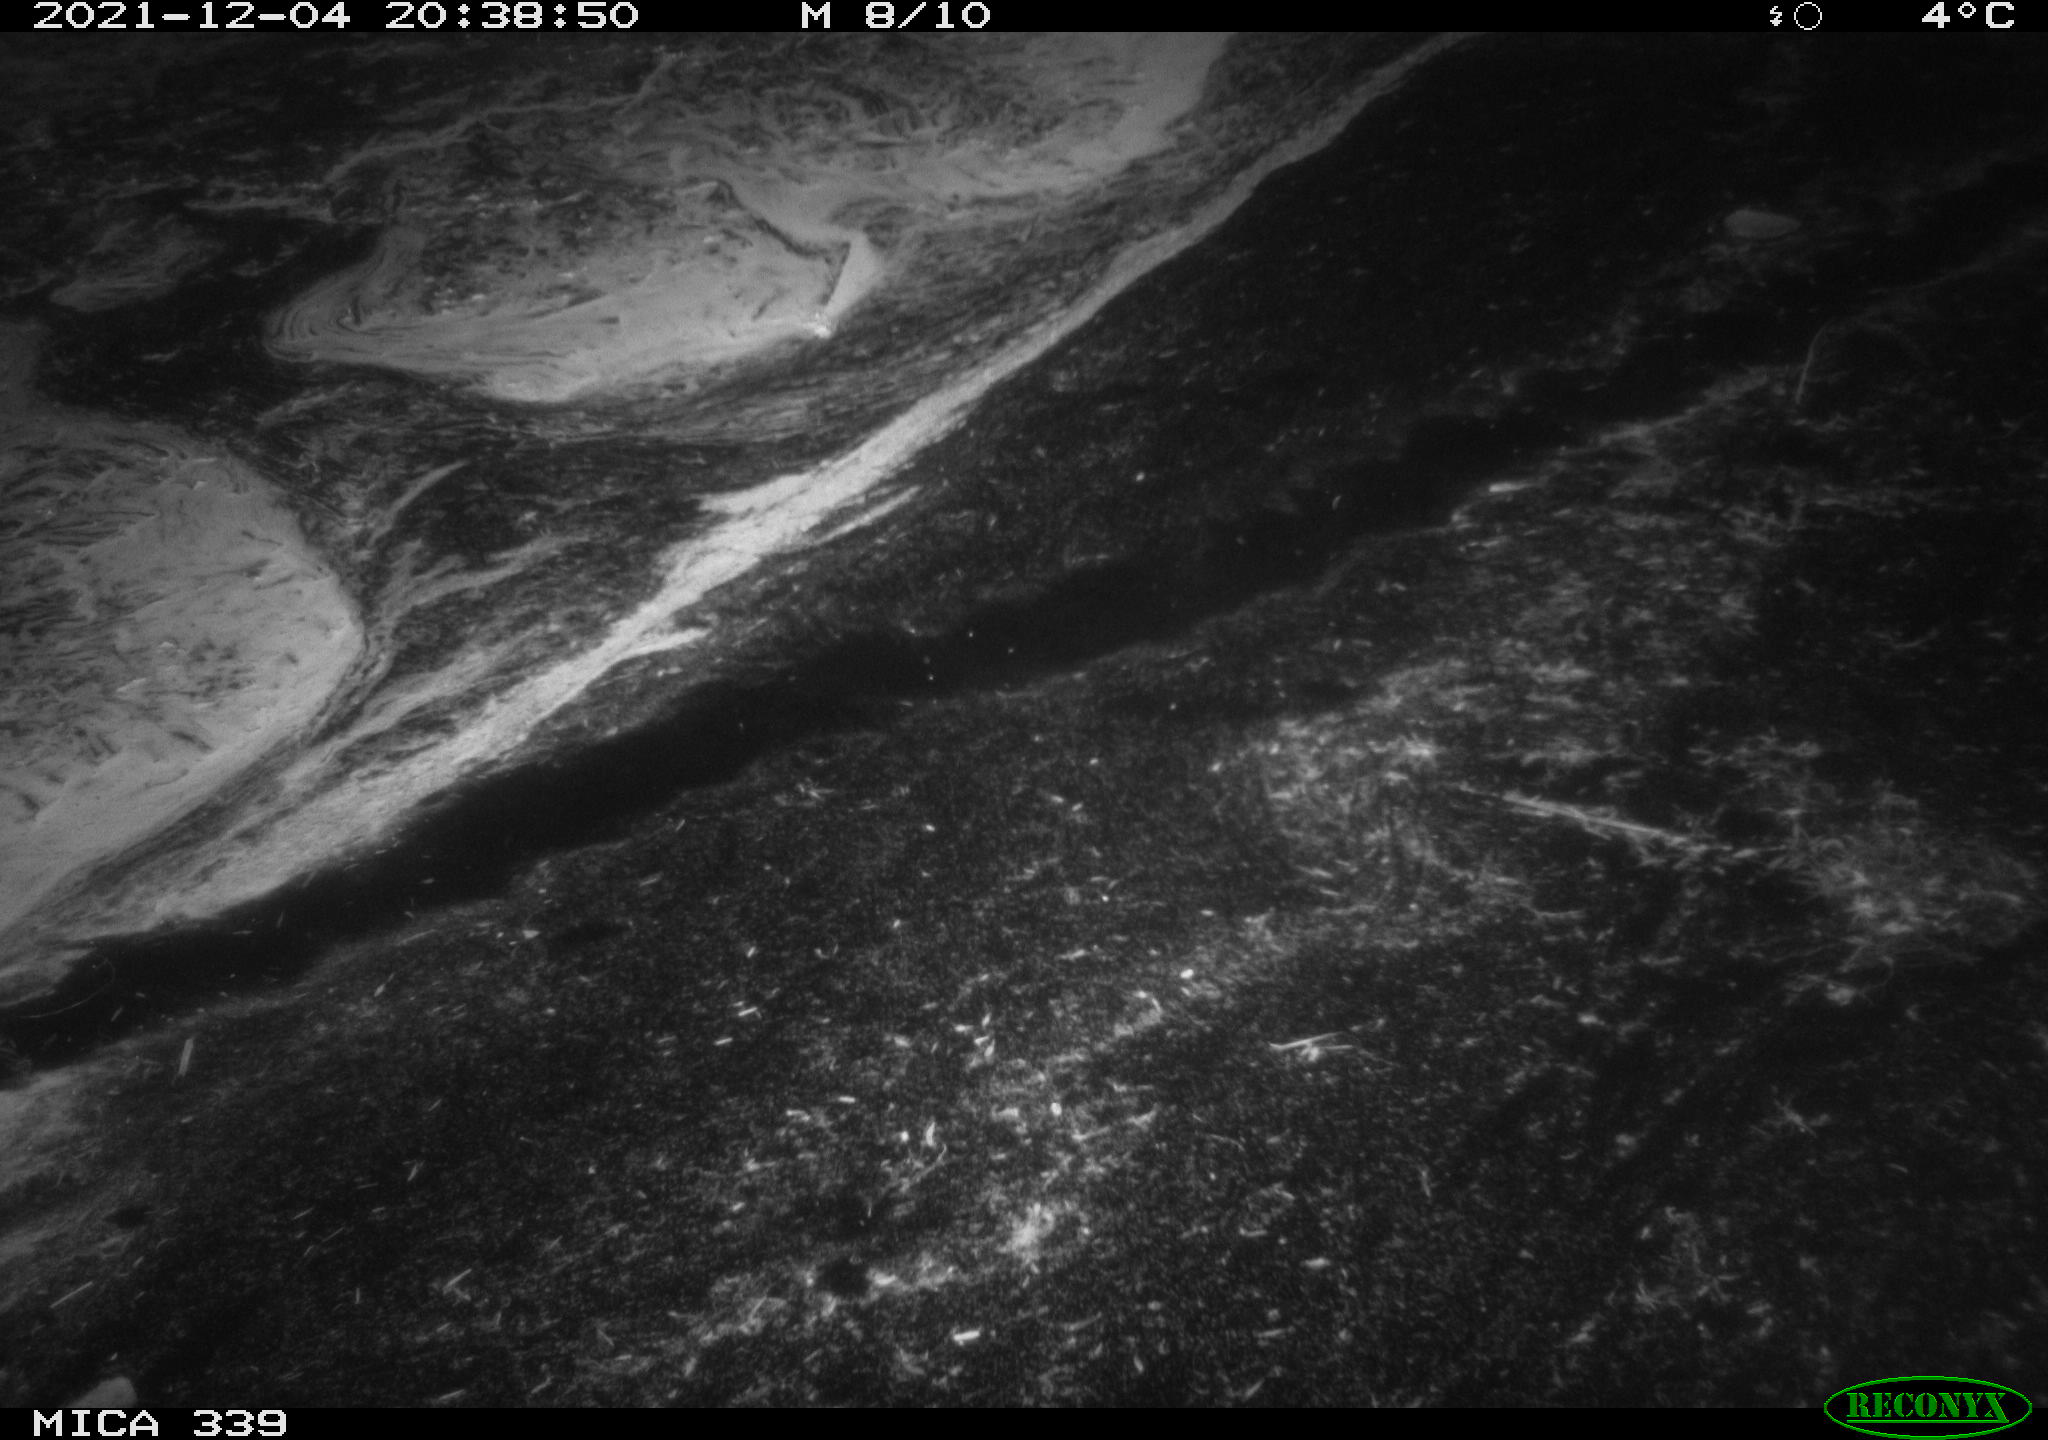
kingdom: Animalia
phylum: Chordata
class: Mammalia
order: Rodentia
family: Muridae
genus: Rattus
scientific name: Rattus norvegicus
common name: Brown rat
